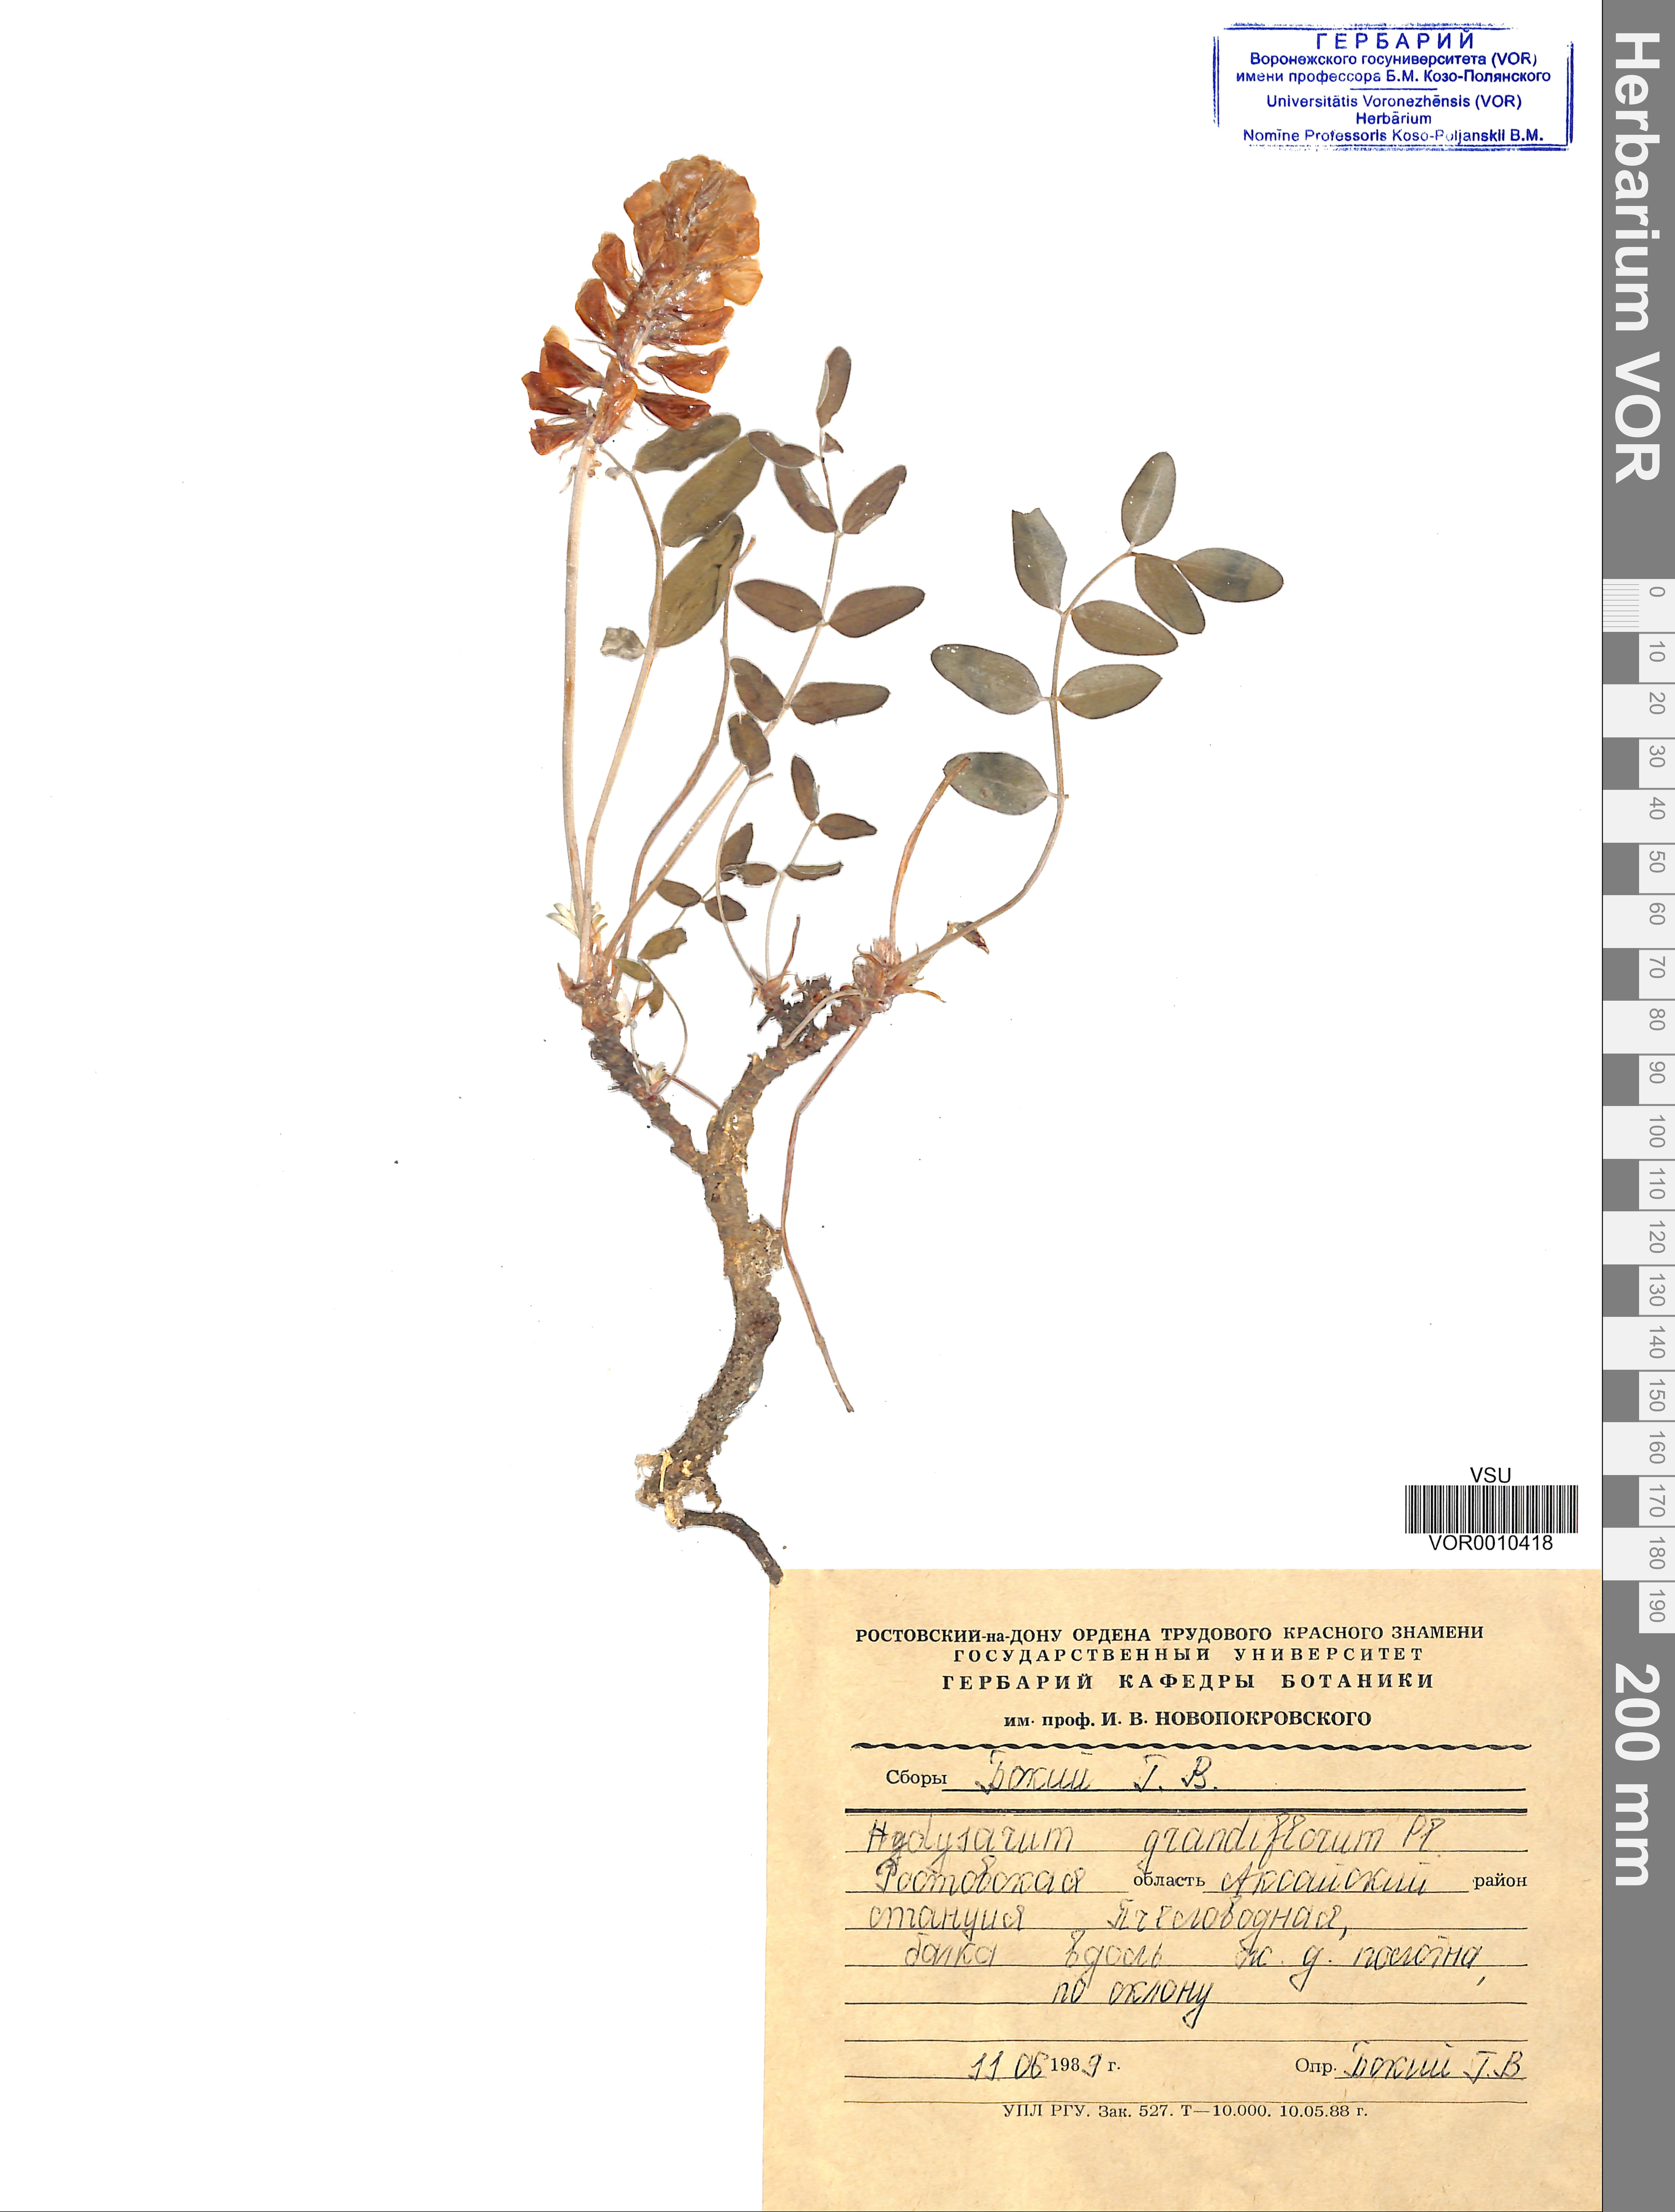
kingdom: Plantae
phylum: Tracheophyta
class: Magnoliopsida
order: Fabales
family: Fabaceae
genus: Hedysarum
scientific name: Hedysarum grandiflorum
